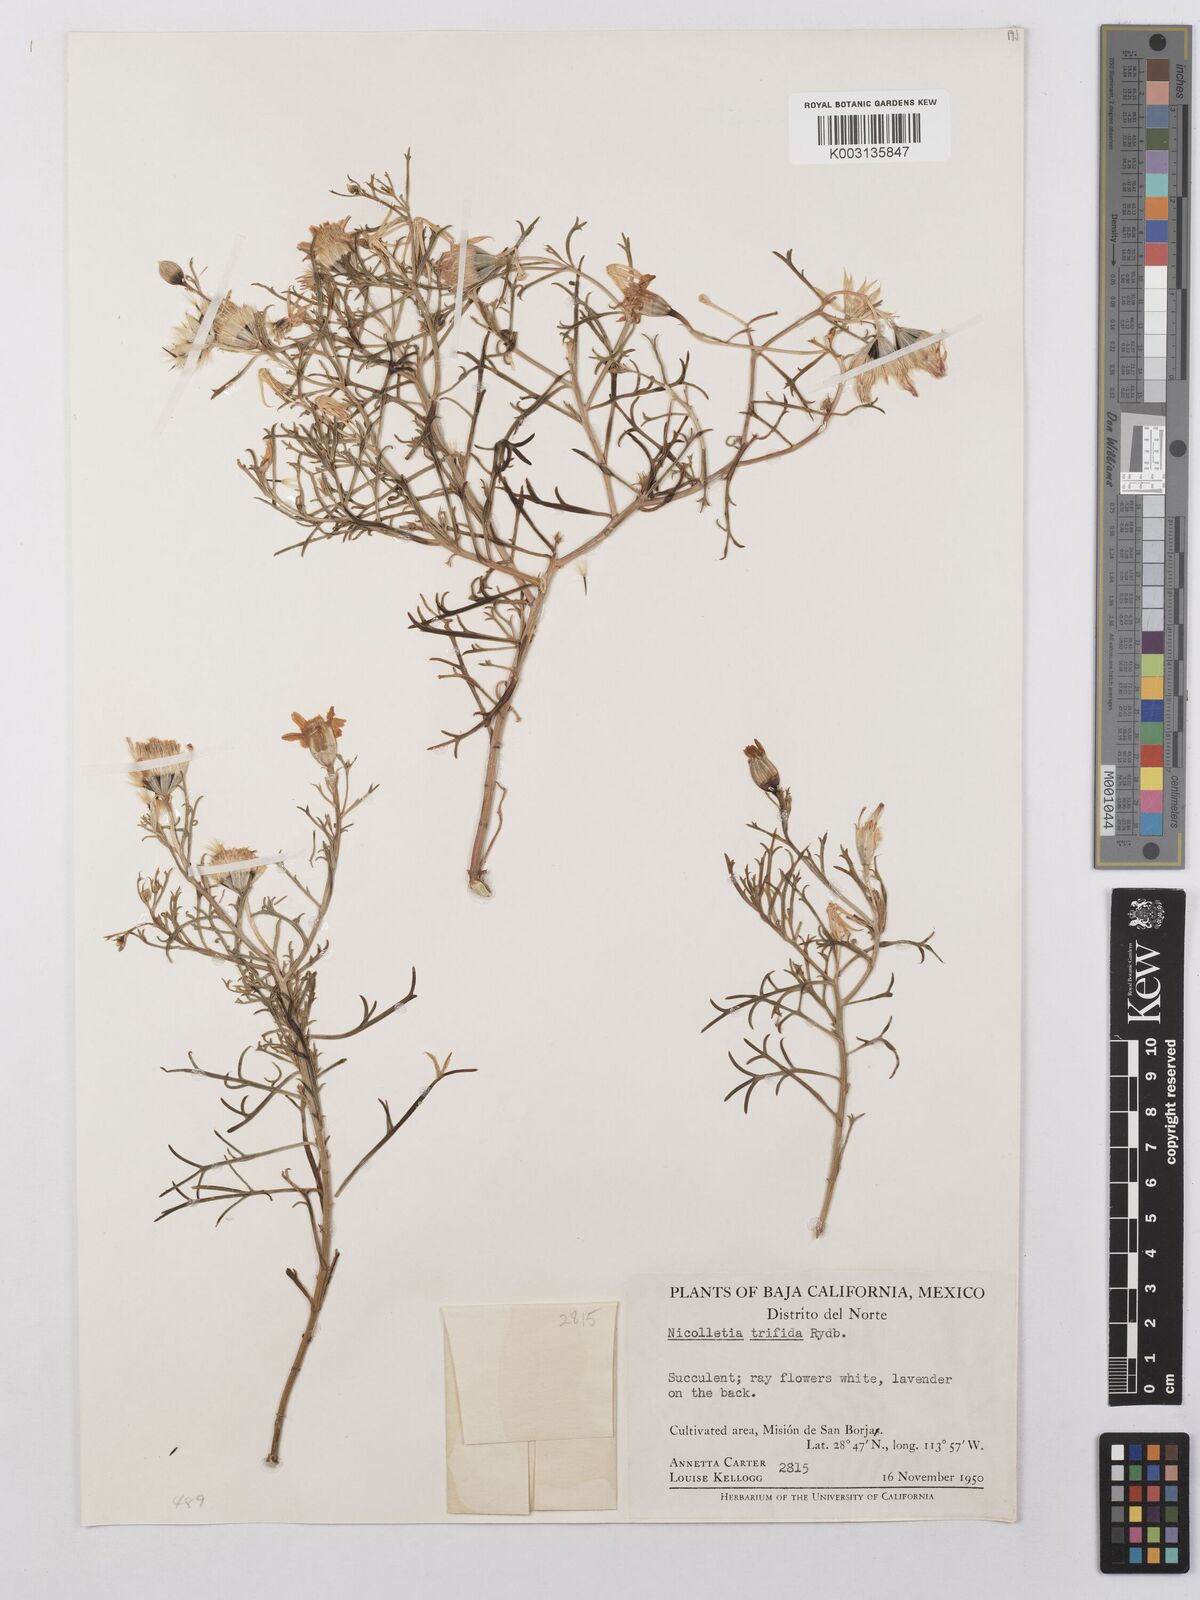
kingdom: Plantae
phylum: Tracheophyta
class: Magnoliopsida
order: Asterales
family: Asteraceae
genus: Nicolletia
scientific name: Nicolletia trifida
